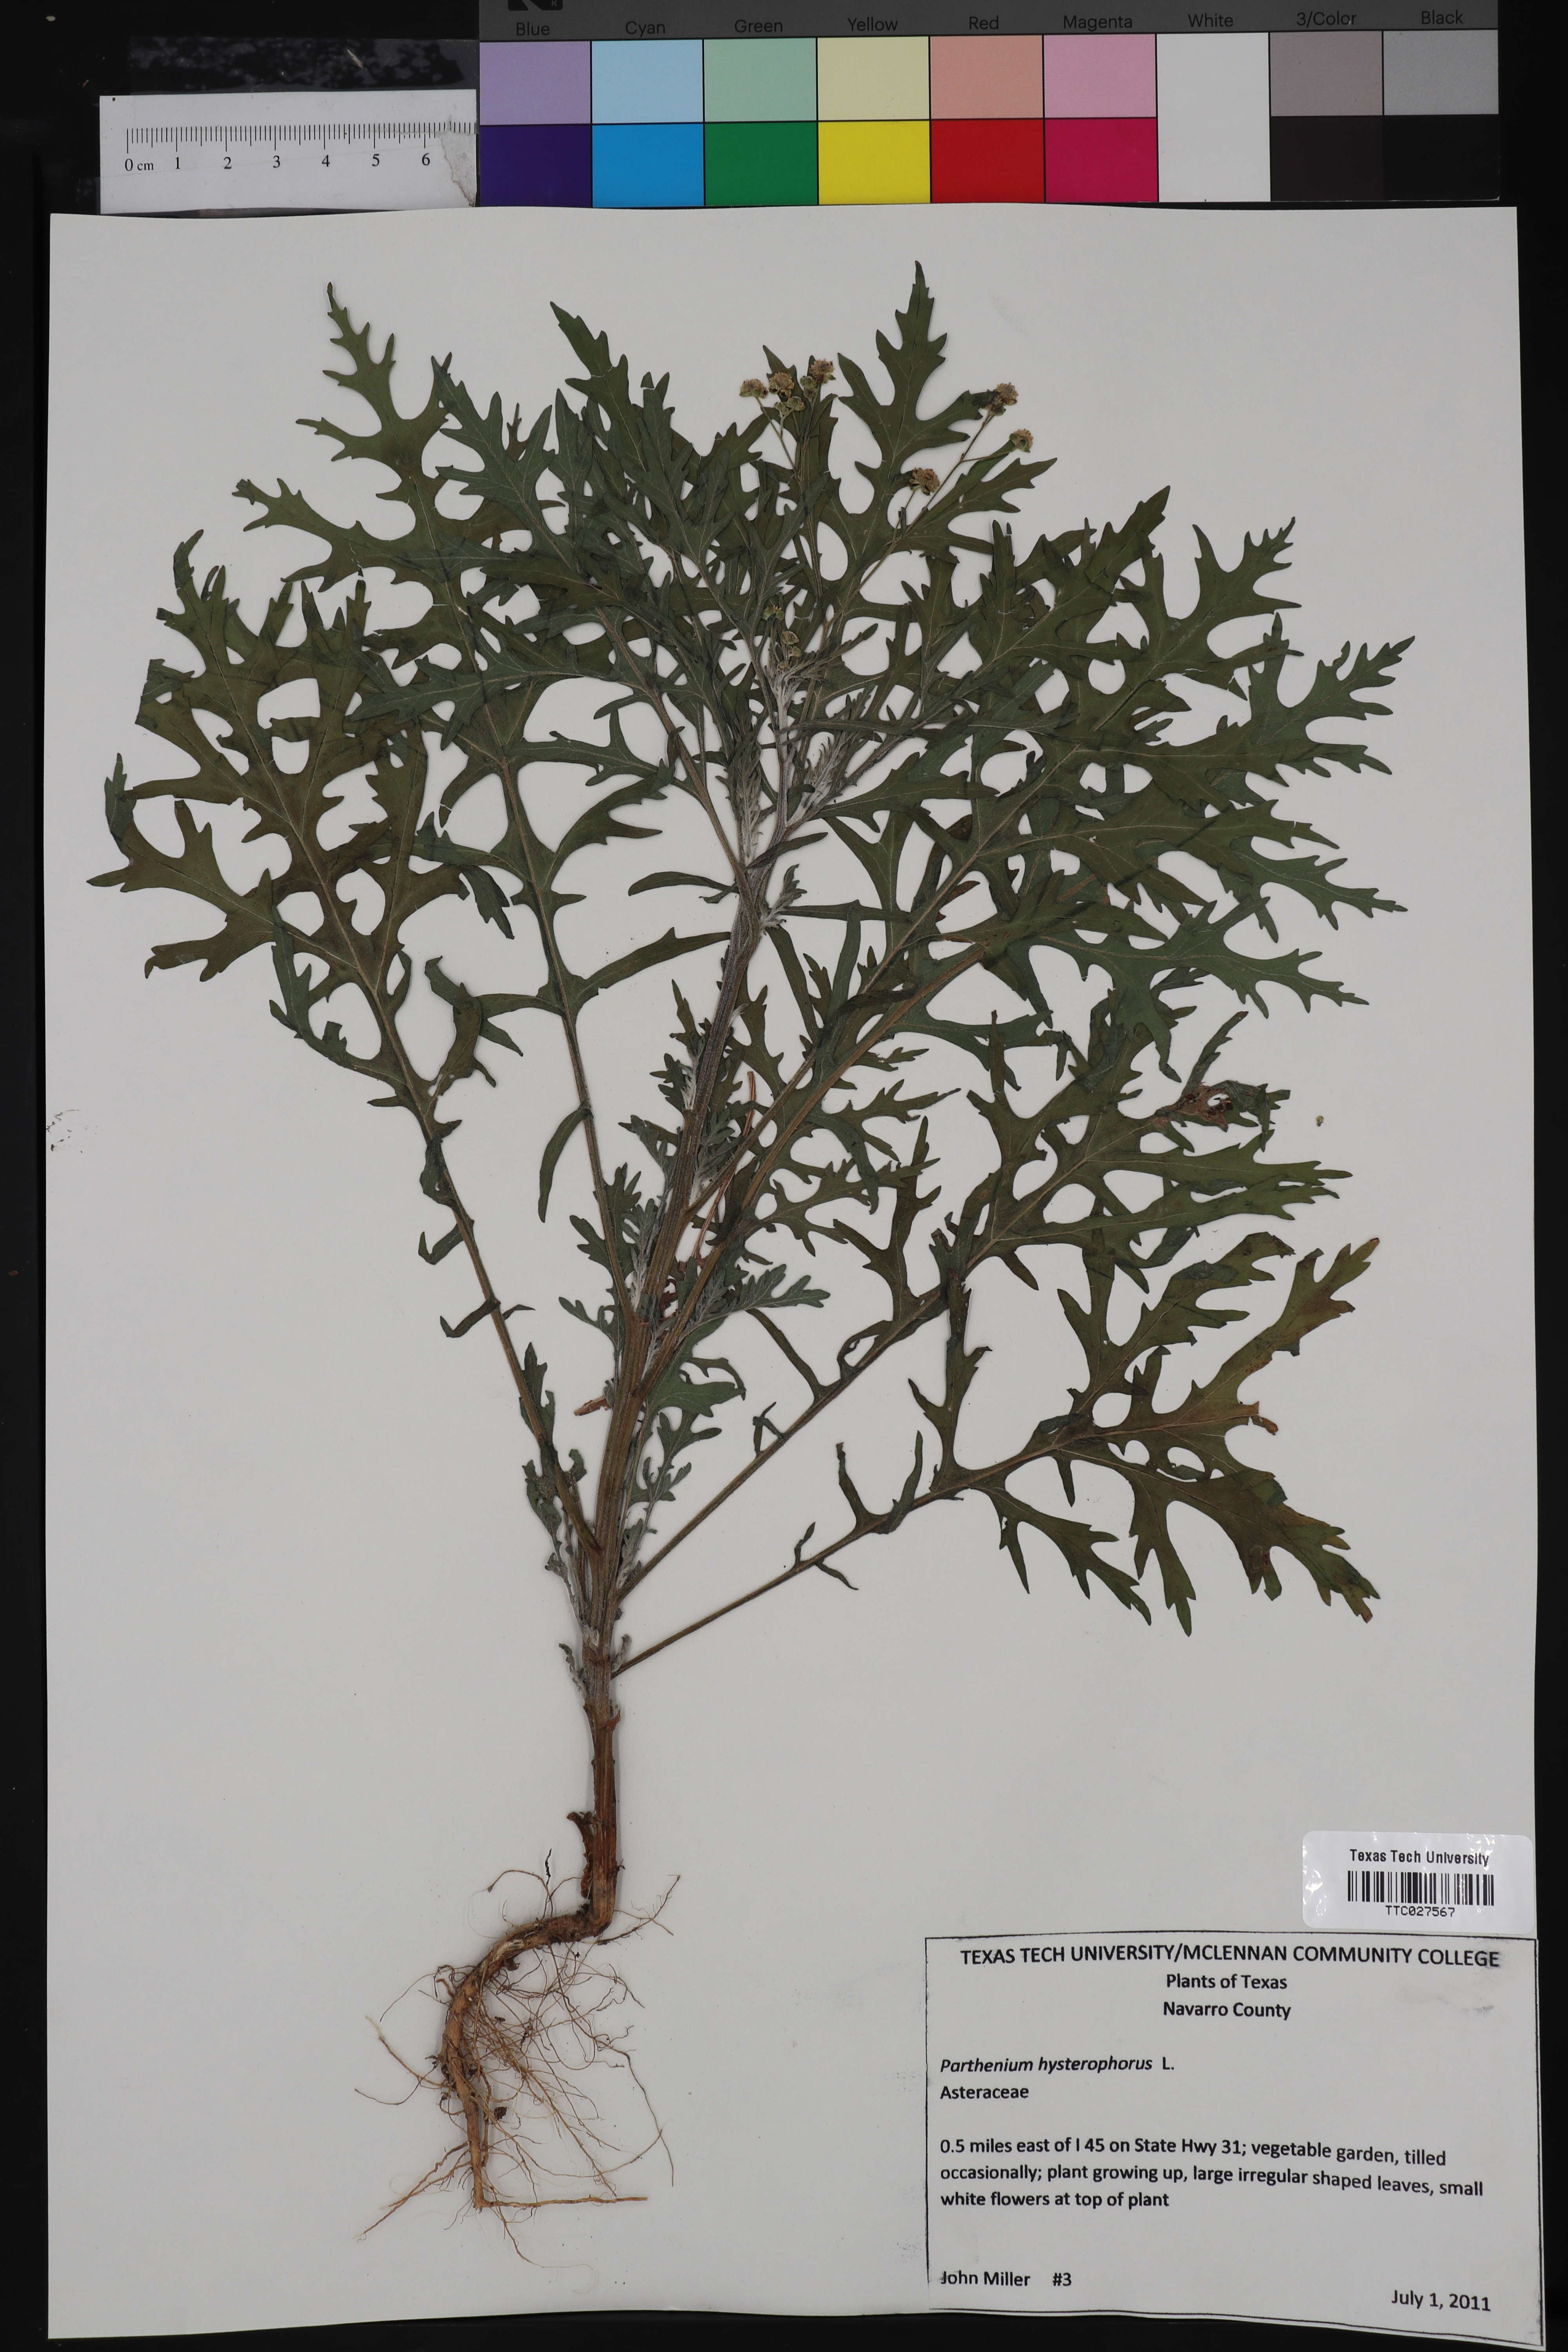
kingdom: Plantae
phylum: Tracheophyta
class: Magnoliopsida
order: Asterales
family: Asteraceae
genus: Parthenium
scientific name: Parthenium hysterophorus
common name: Santa maria feverfew
